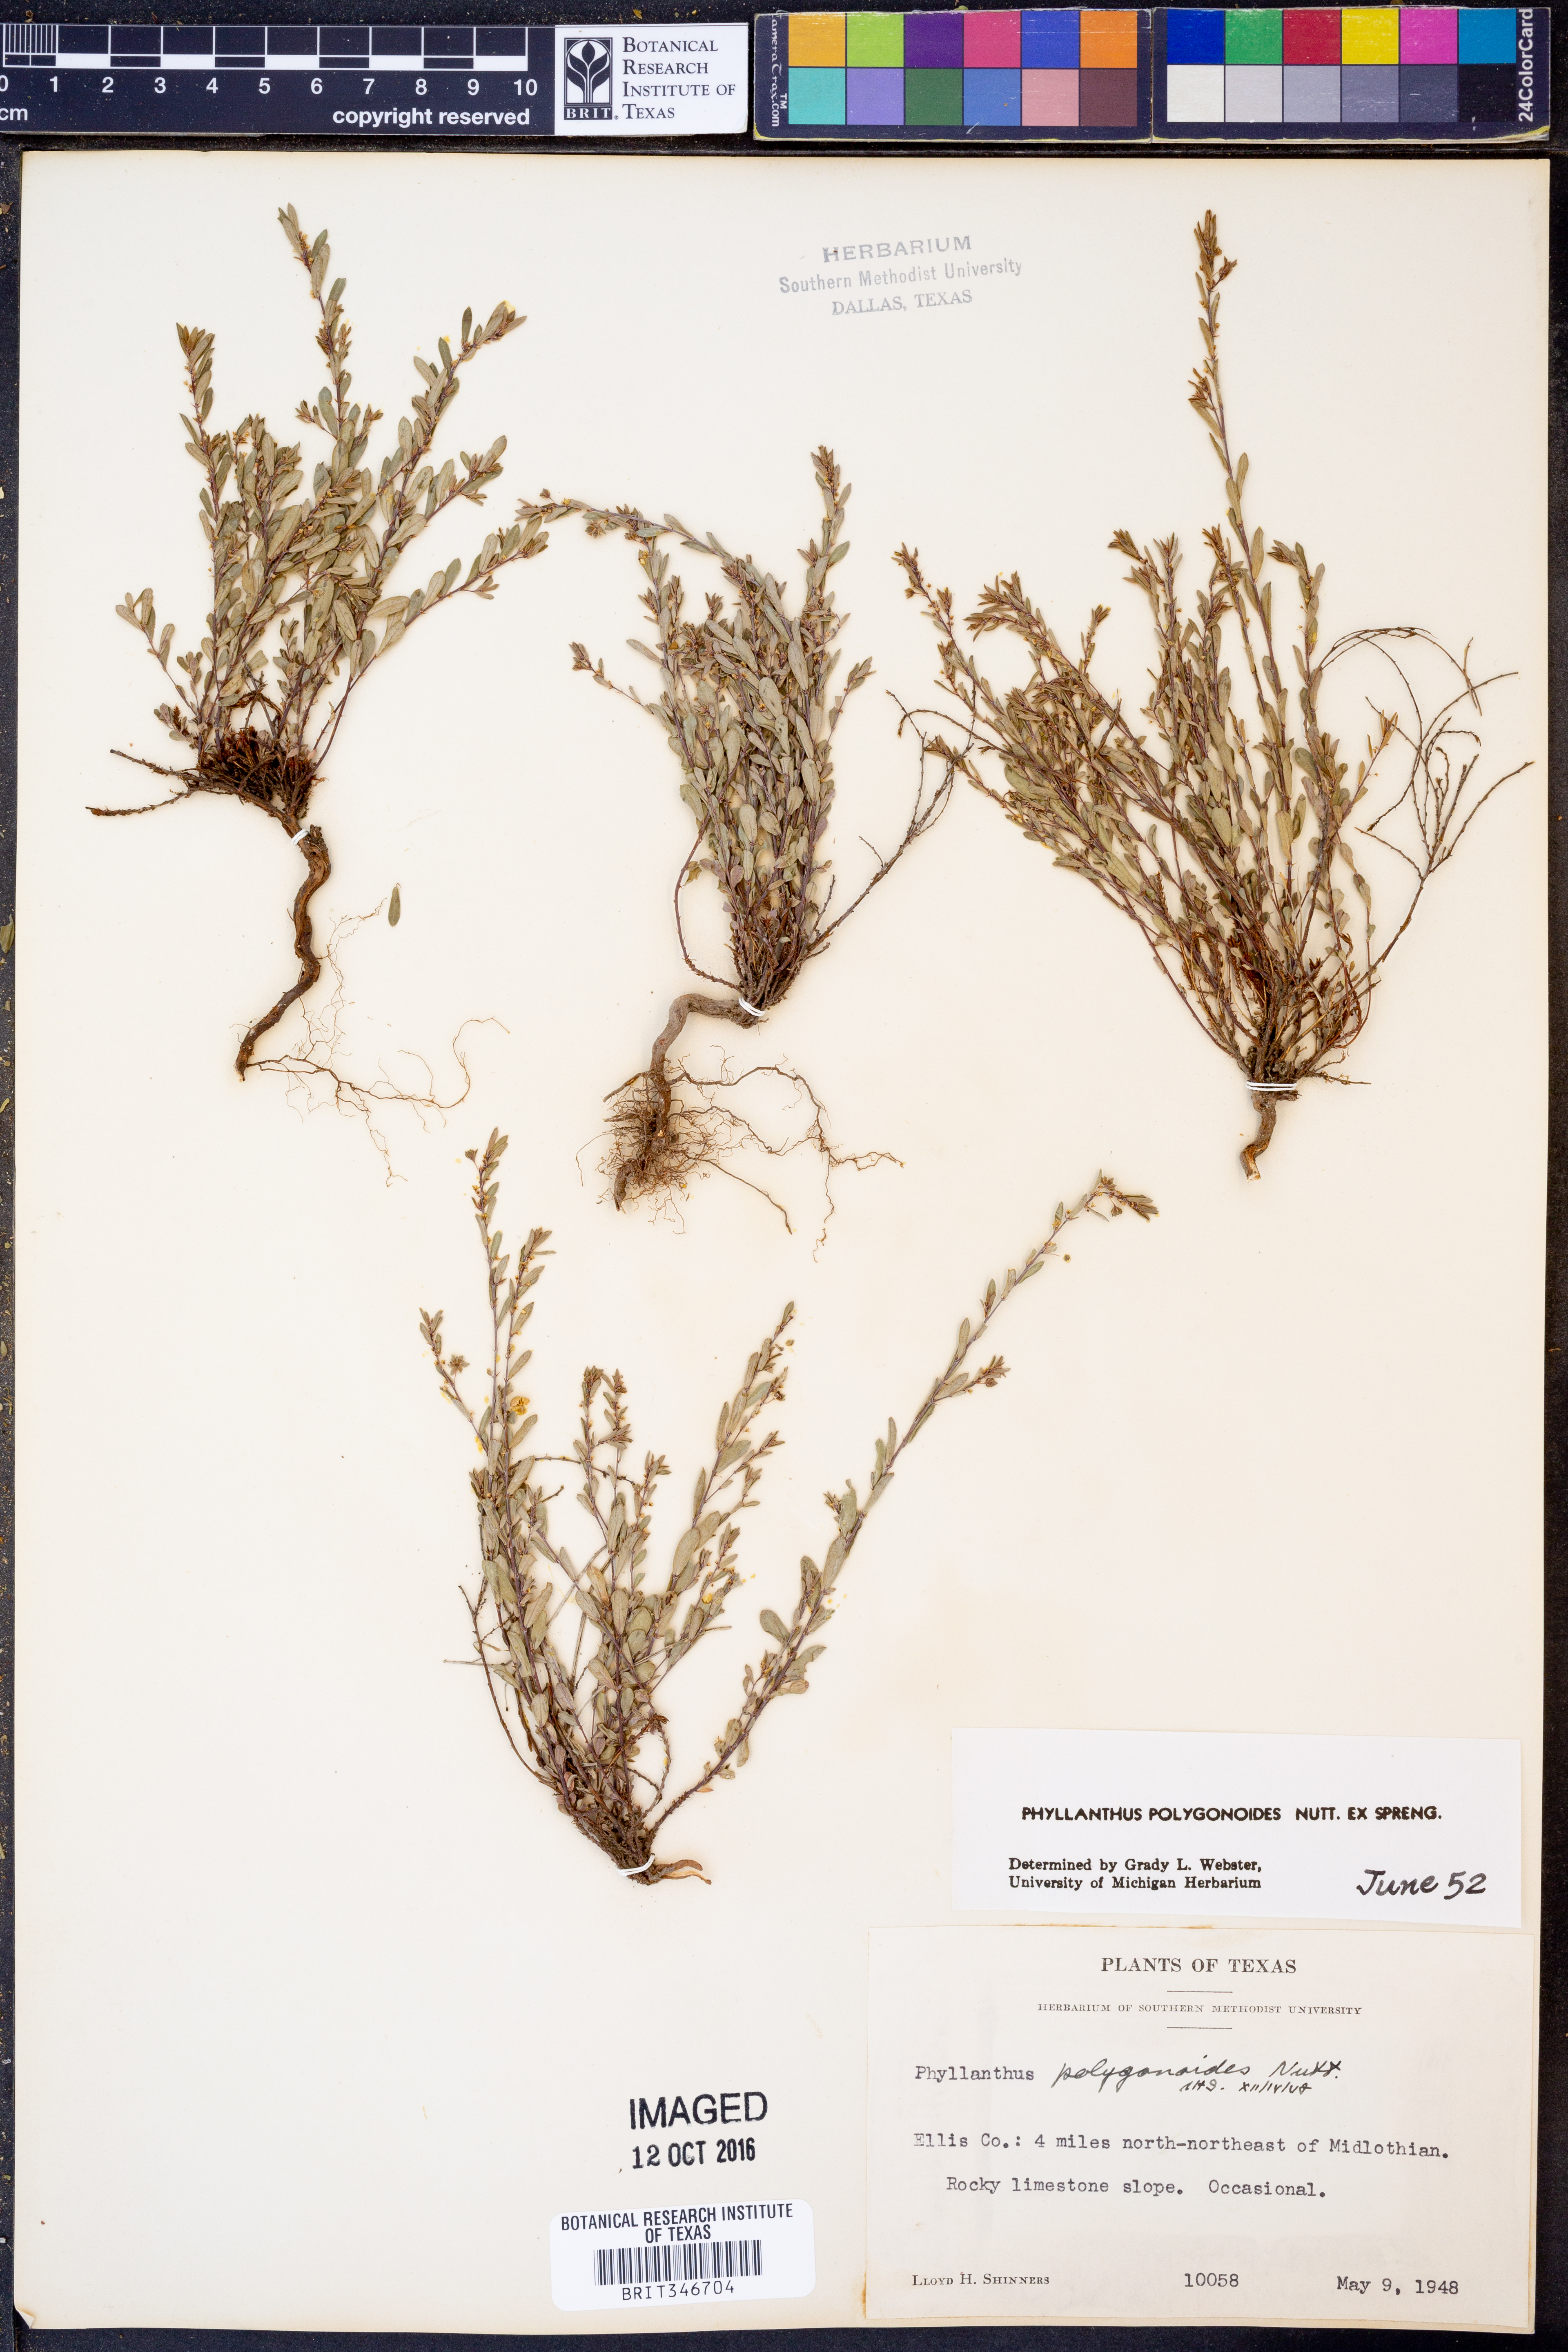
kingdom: Plantae
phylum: Tracheophyta
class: Magnoliopsida
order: Malpighiales
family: Phyllanthaceae
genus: Phyllanthus
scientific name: Phyllanthus polygonoides
